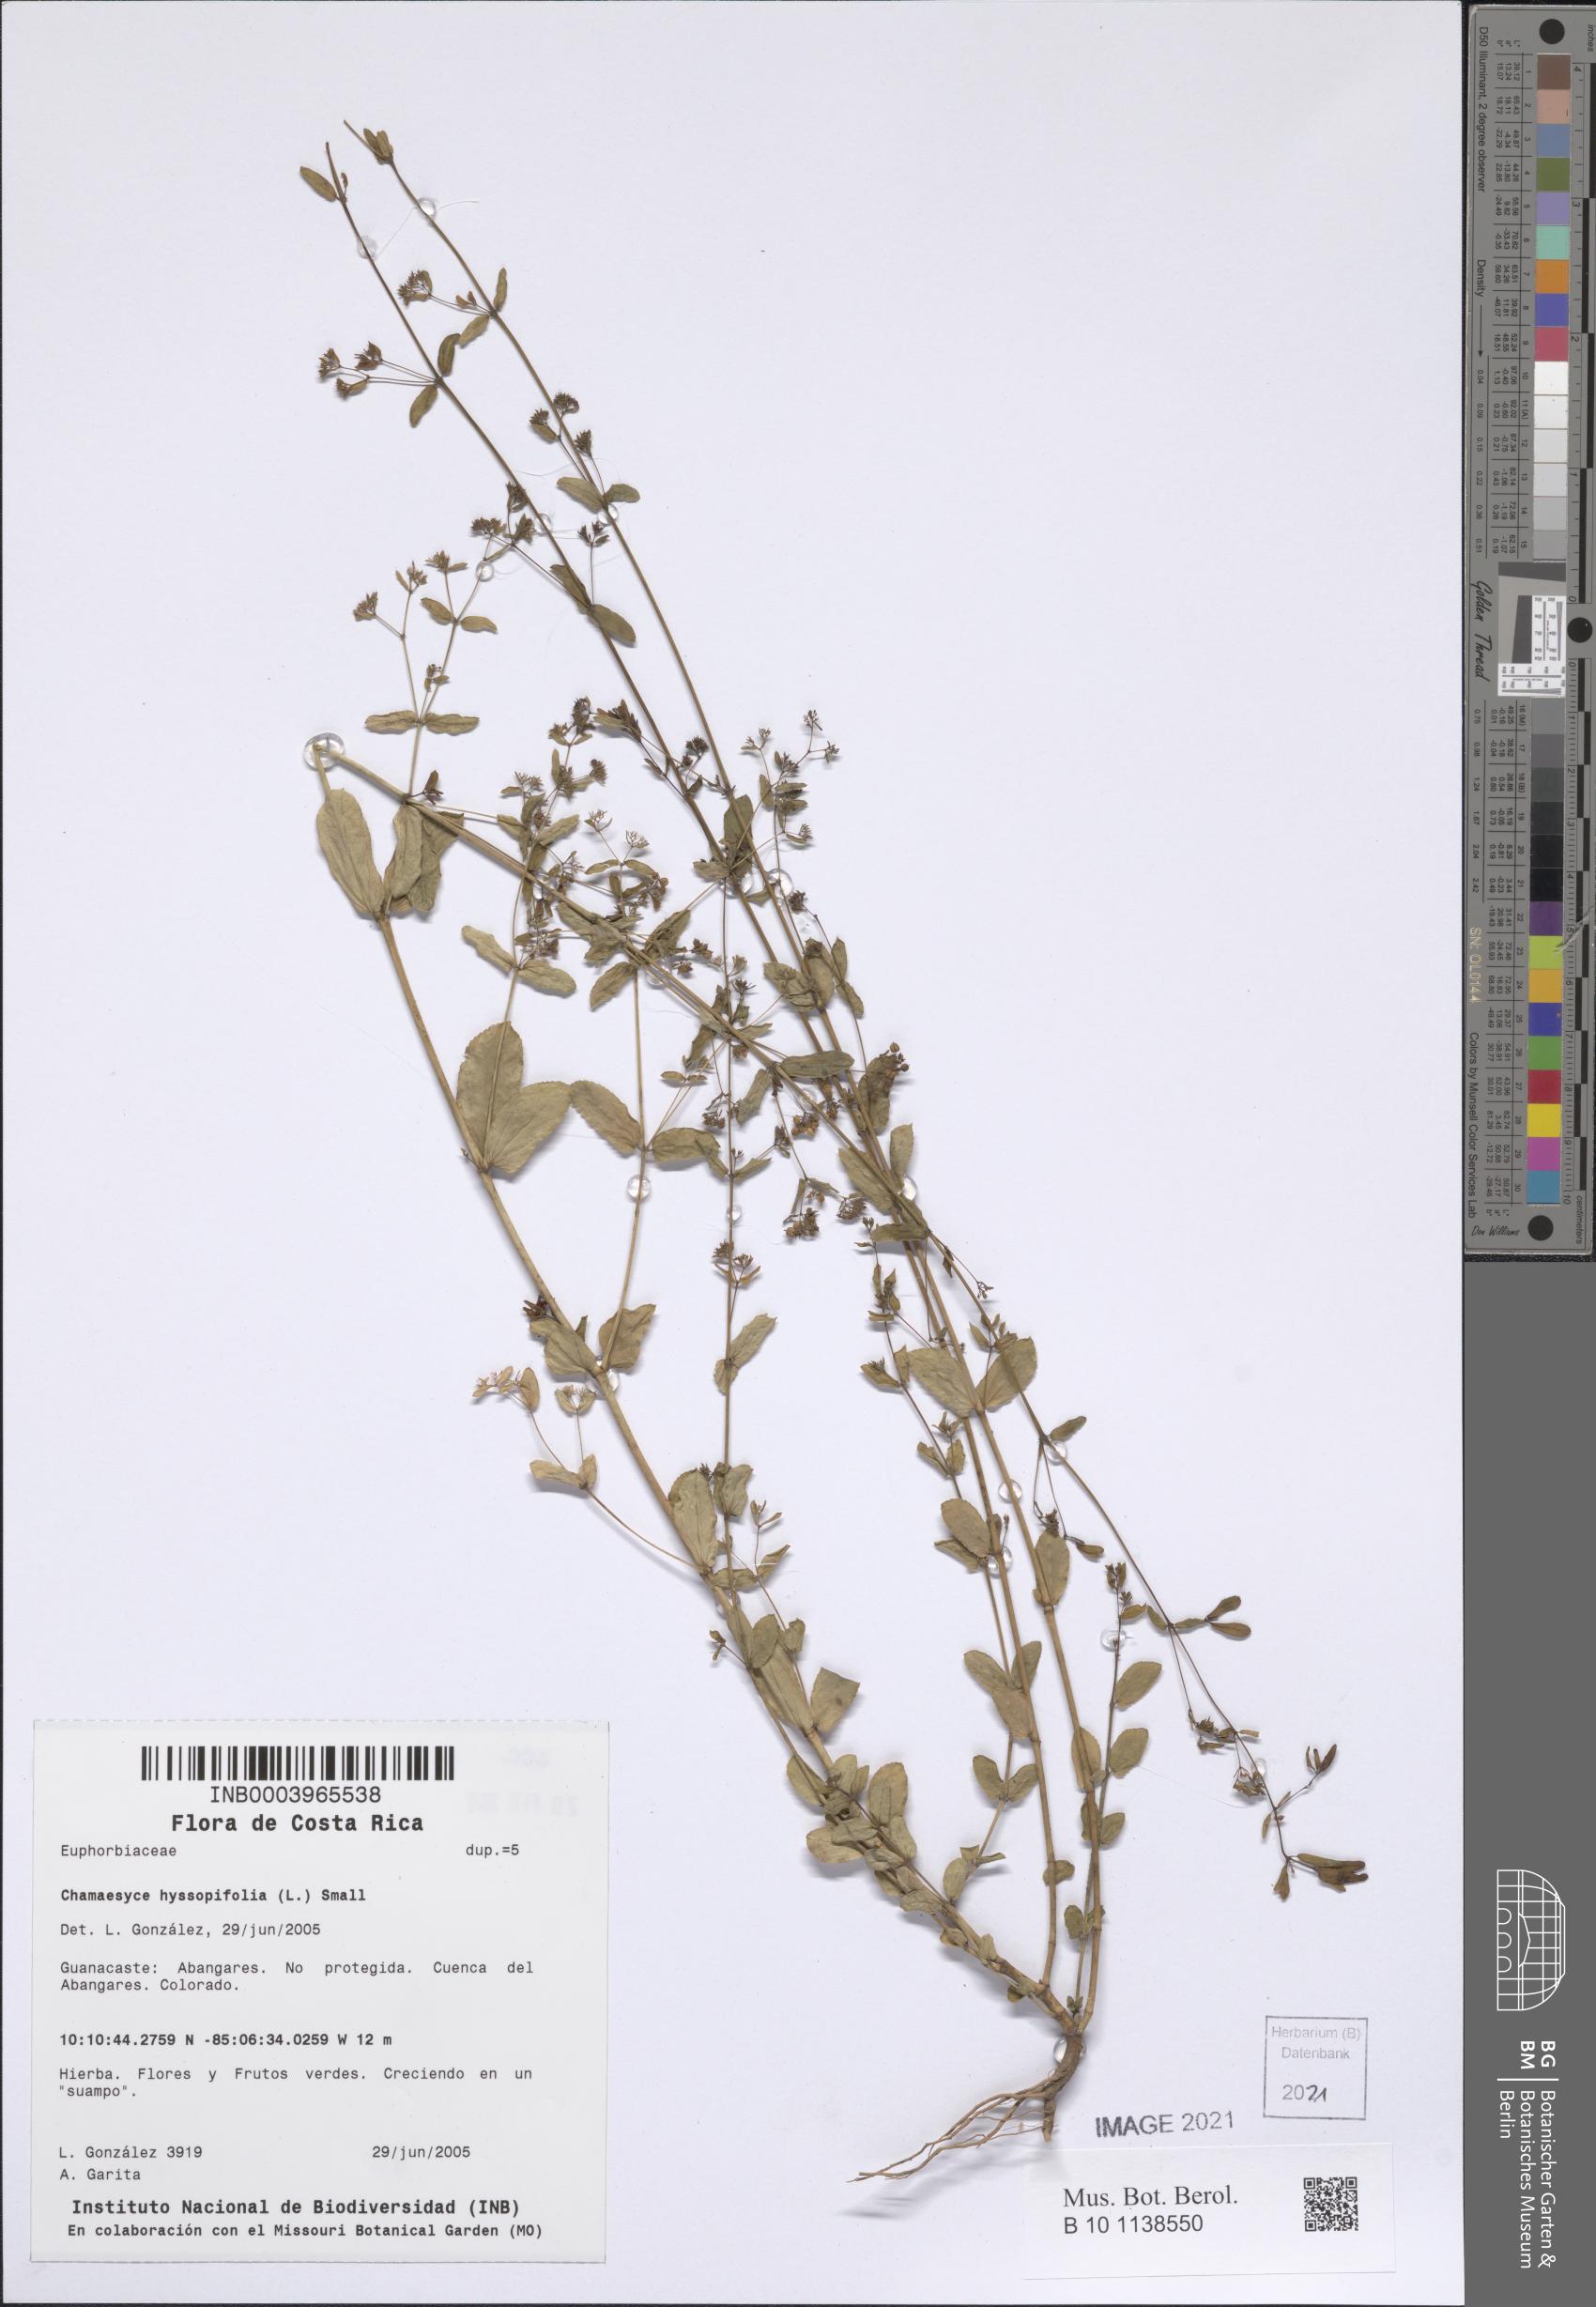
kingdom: Plantae
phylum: Tracheophyta
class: Magnoliopsida
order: Malpighiales
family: Euphorbiaceae
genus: Euphorbia
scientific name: Euphorbia hyssopifolia
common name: Hyssopleaf sandmat
